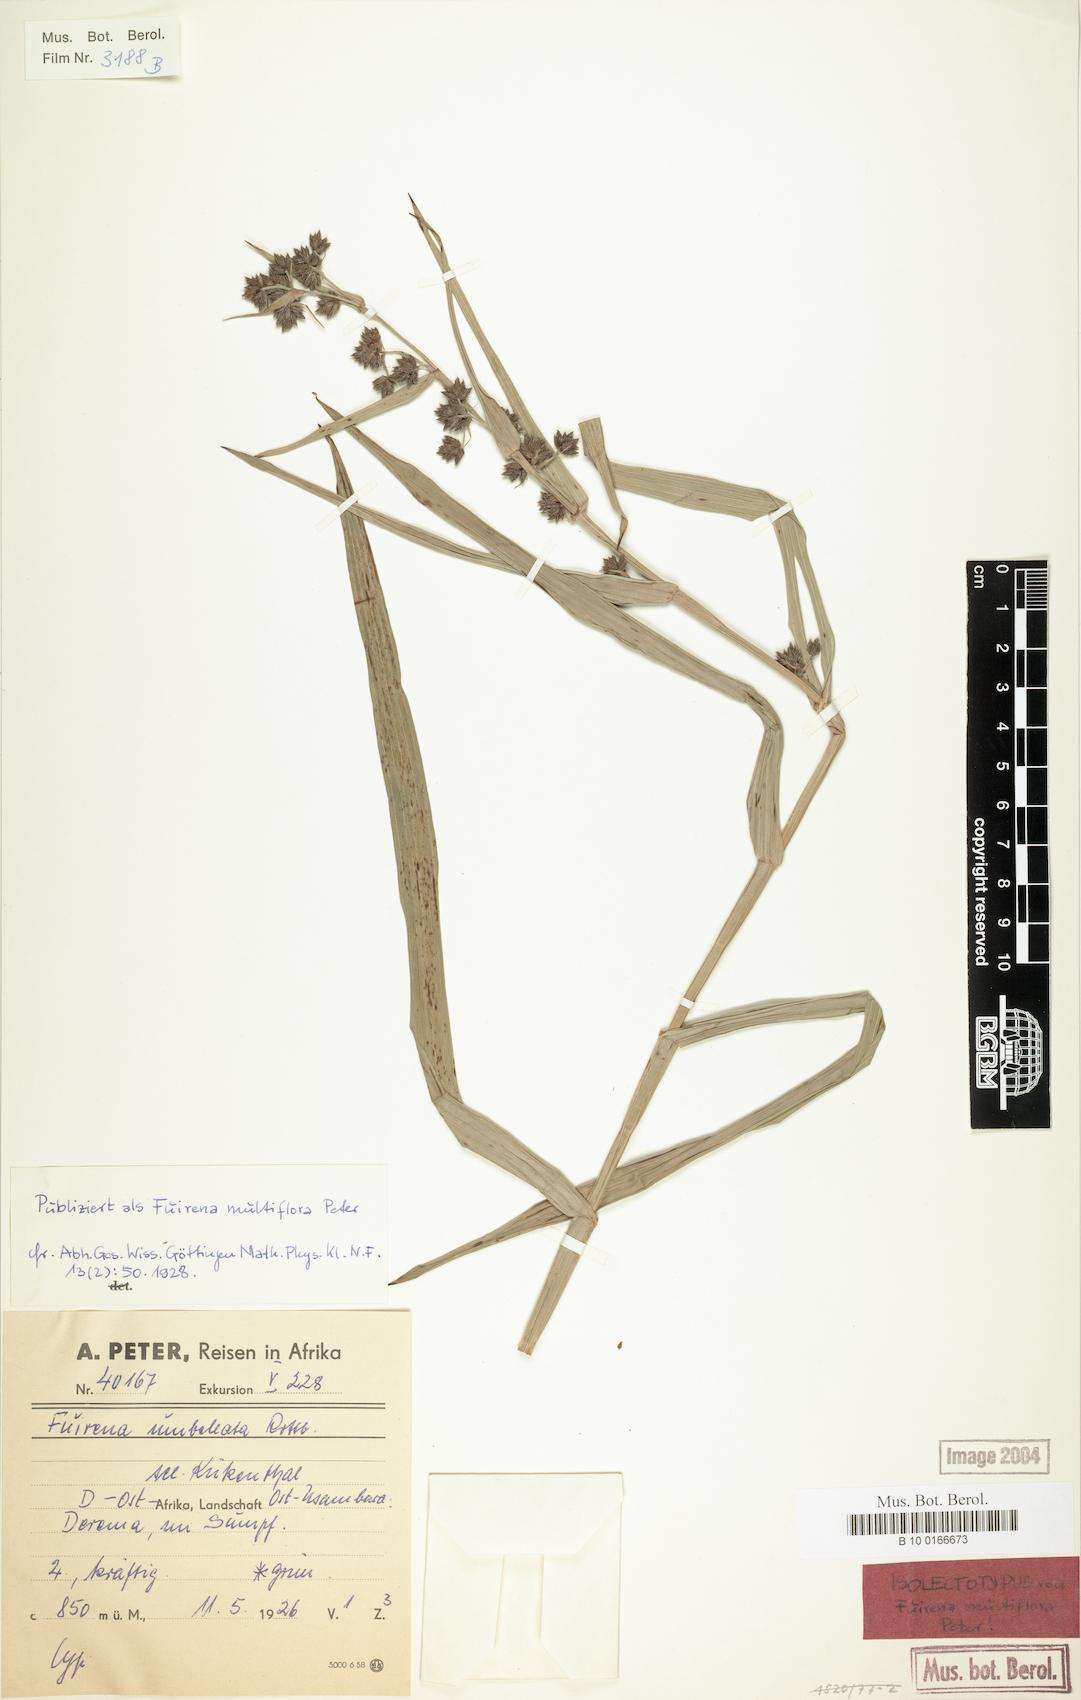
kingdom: Plantae
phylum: Tracheophyta
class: Liliopsida
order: Poales
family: Cyperaceae
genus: Fuirena
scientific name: Fuirena umbellata
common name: Yefen
